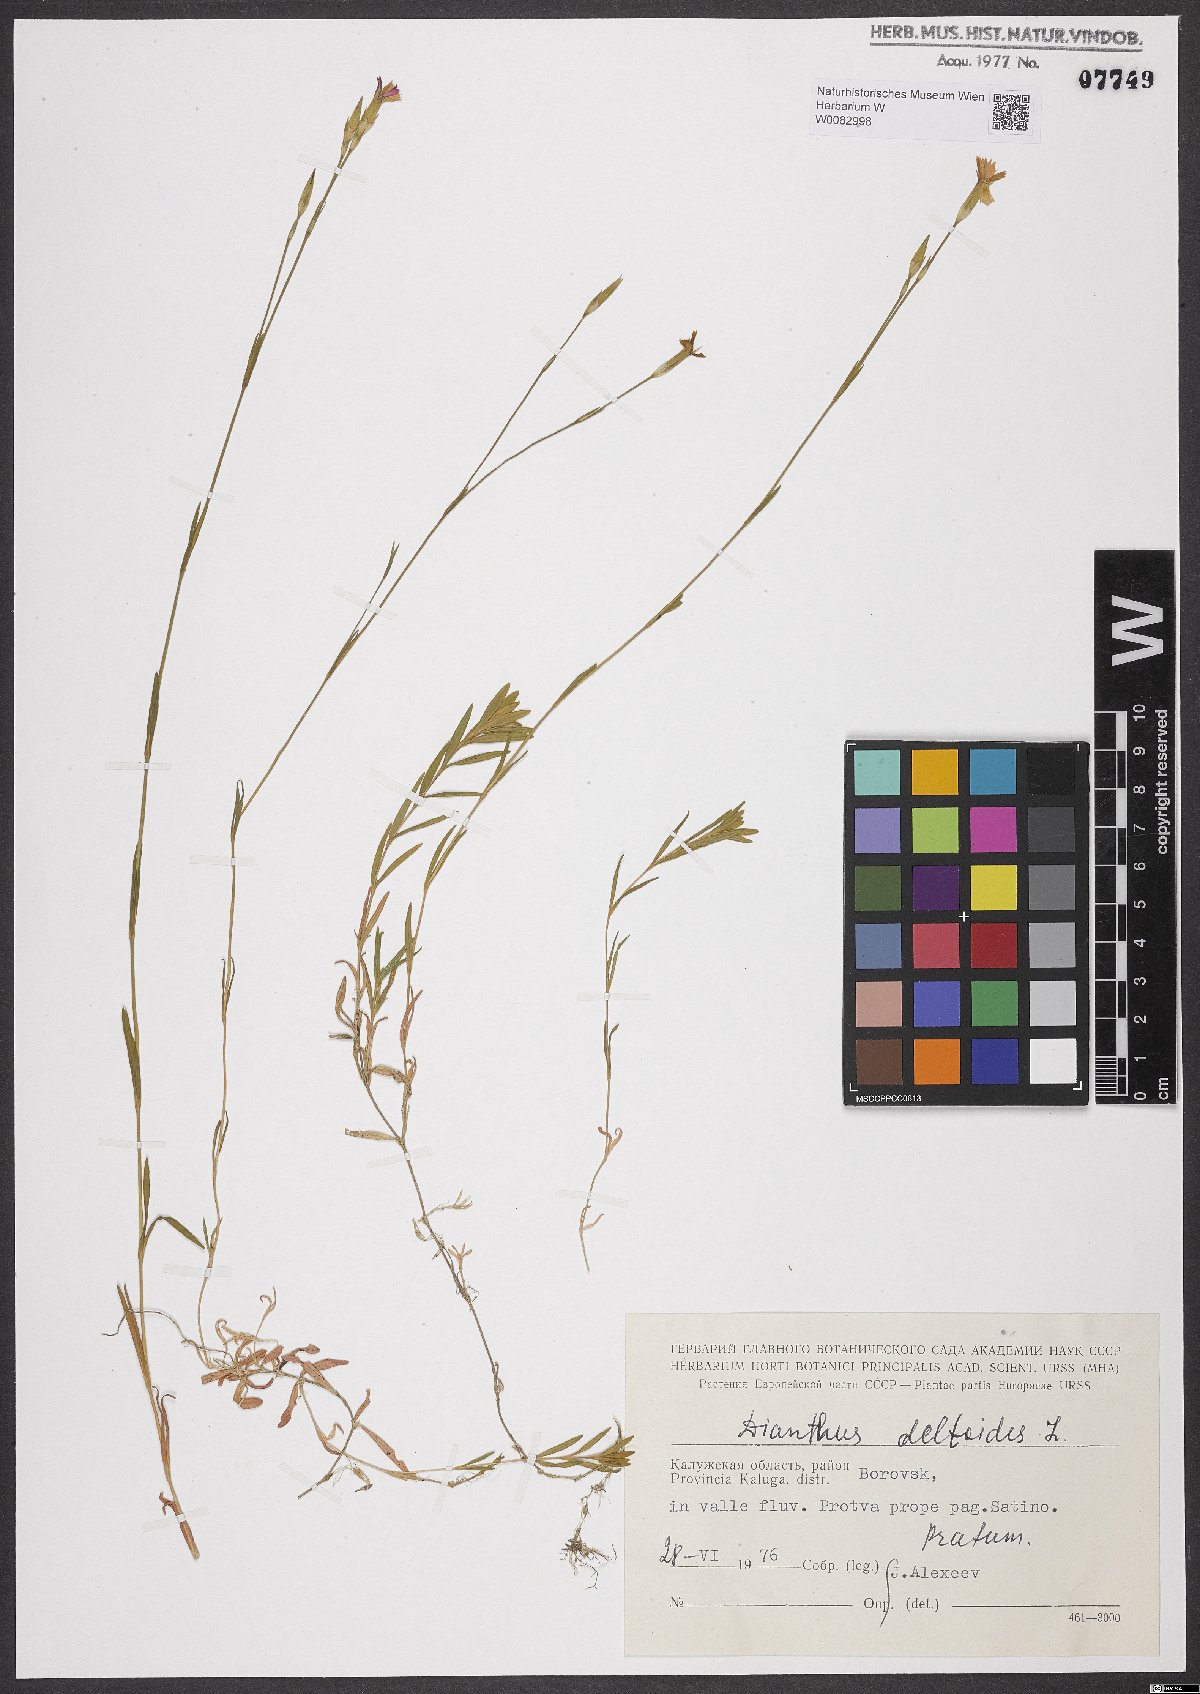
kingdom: Plantae
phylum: Tracheophyta
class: Magnoliopsida
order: Caryophyllales
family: Caryophyllaceae
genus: Dianthus
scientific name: Dianthus deltoides
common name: Maiden pink
